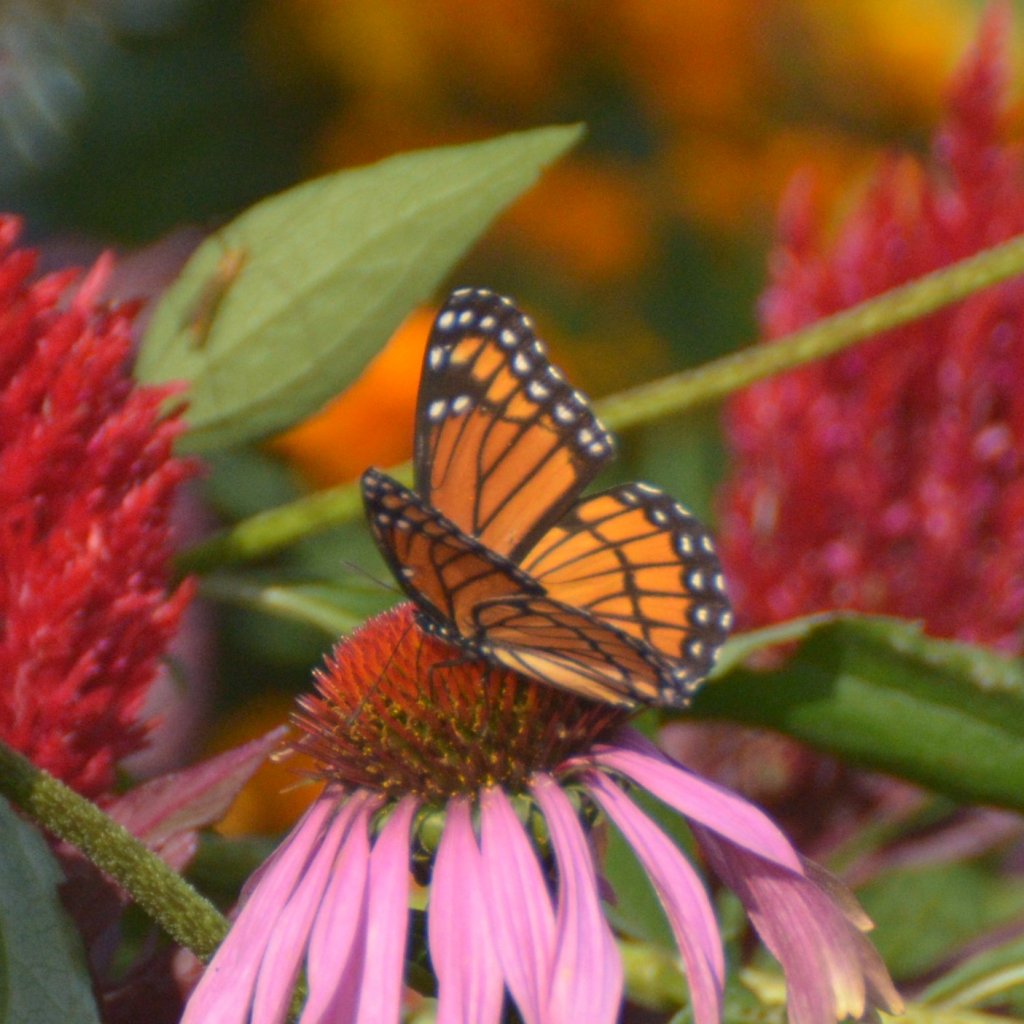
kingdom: Animalia
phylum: Arthropoda
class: Insecta
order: Lepidoptera
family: Nymphalidae
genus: Limenitis
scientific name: Limenitis archippus
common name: Viceroy
